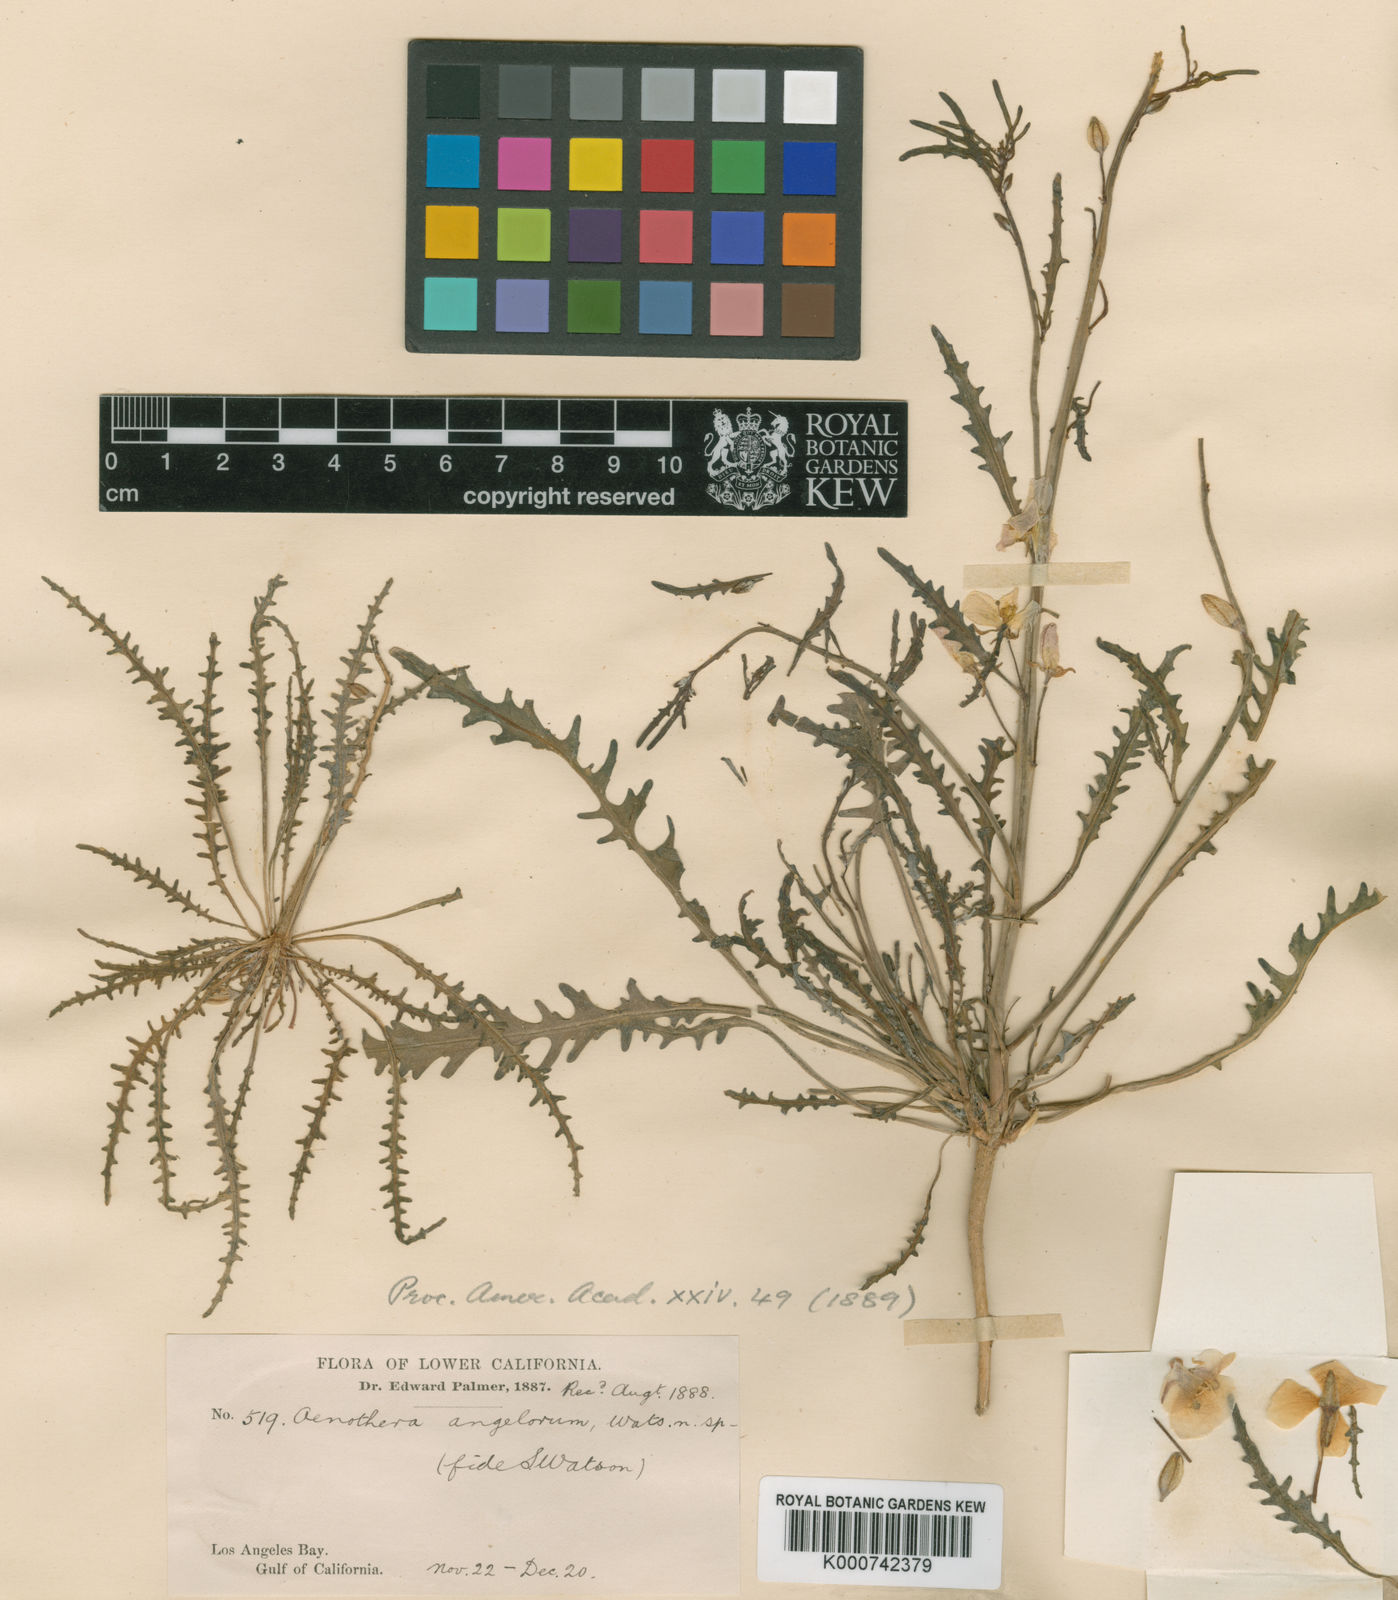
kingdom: Plantae
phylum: Tracheophyta
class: Magnoliopsida
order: Myrtales
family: Onagraceae
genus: Eulobus
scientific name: Eulobus angelorum
